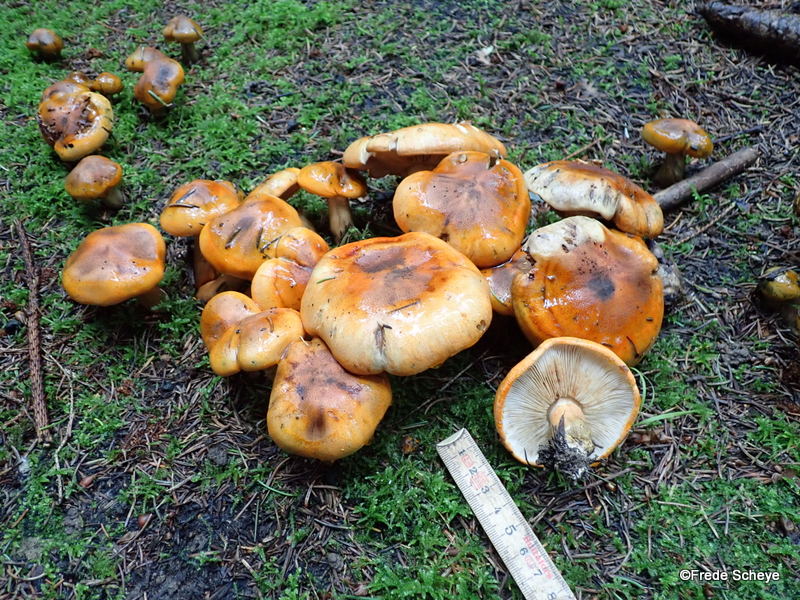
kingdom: Fungi
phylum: Basidiomycota
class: Agaricomycetes
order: Agaricales
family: Tricholomataceae
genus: Tricholoma
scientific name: Tricholoma aurantium
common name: orangegul ridderhat
